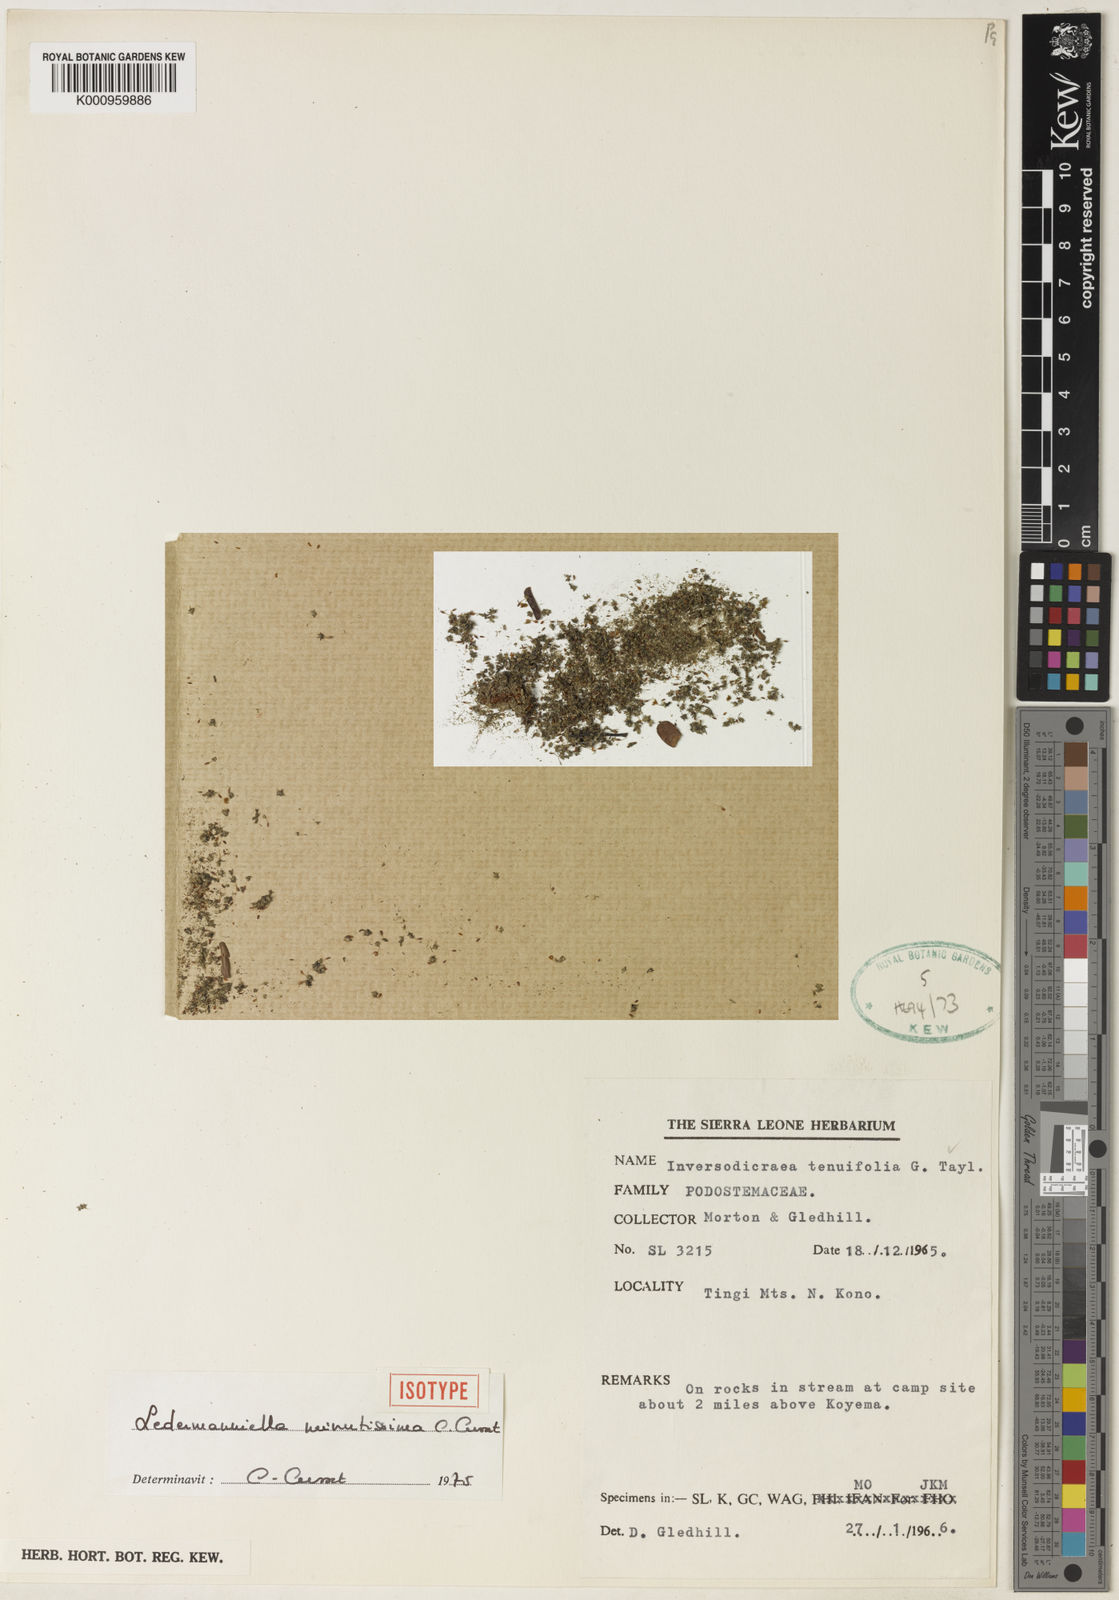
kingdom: Plantae
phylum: Tracheophyta
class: Magnoliopsida
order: Malpighiales
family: Podostemaceae
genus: Ledermanniella
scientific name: Ledermanniella minutissima
